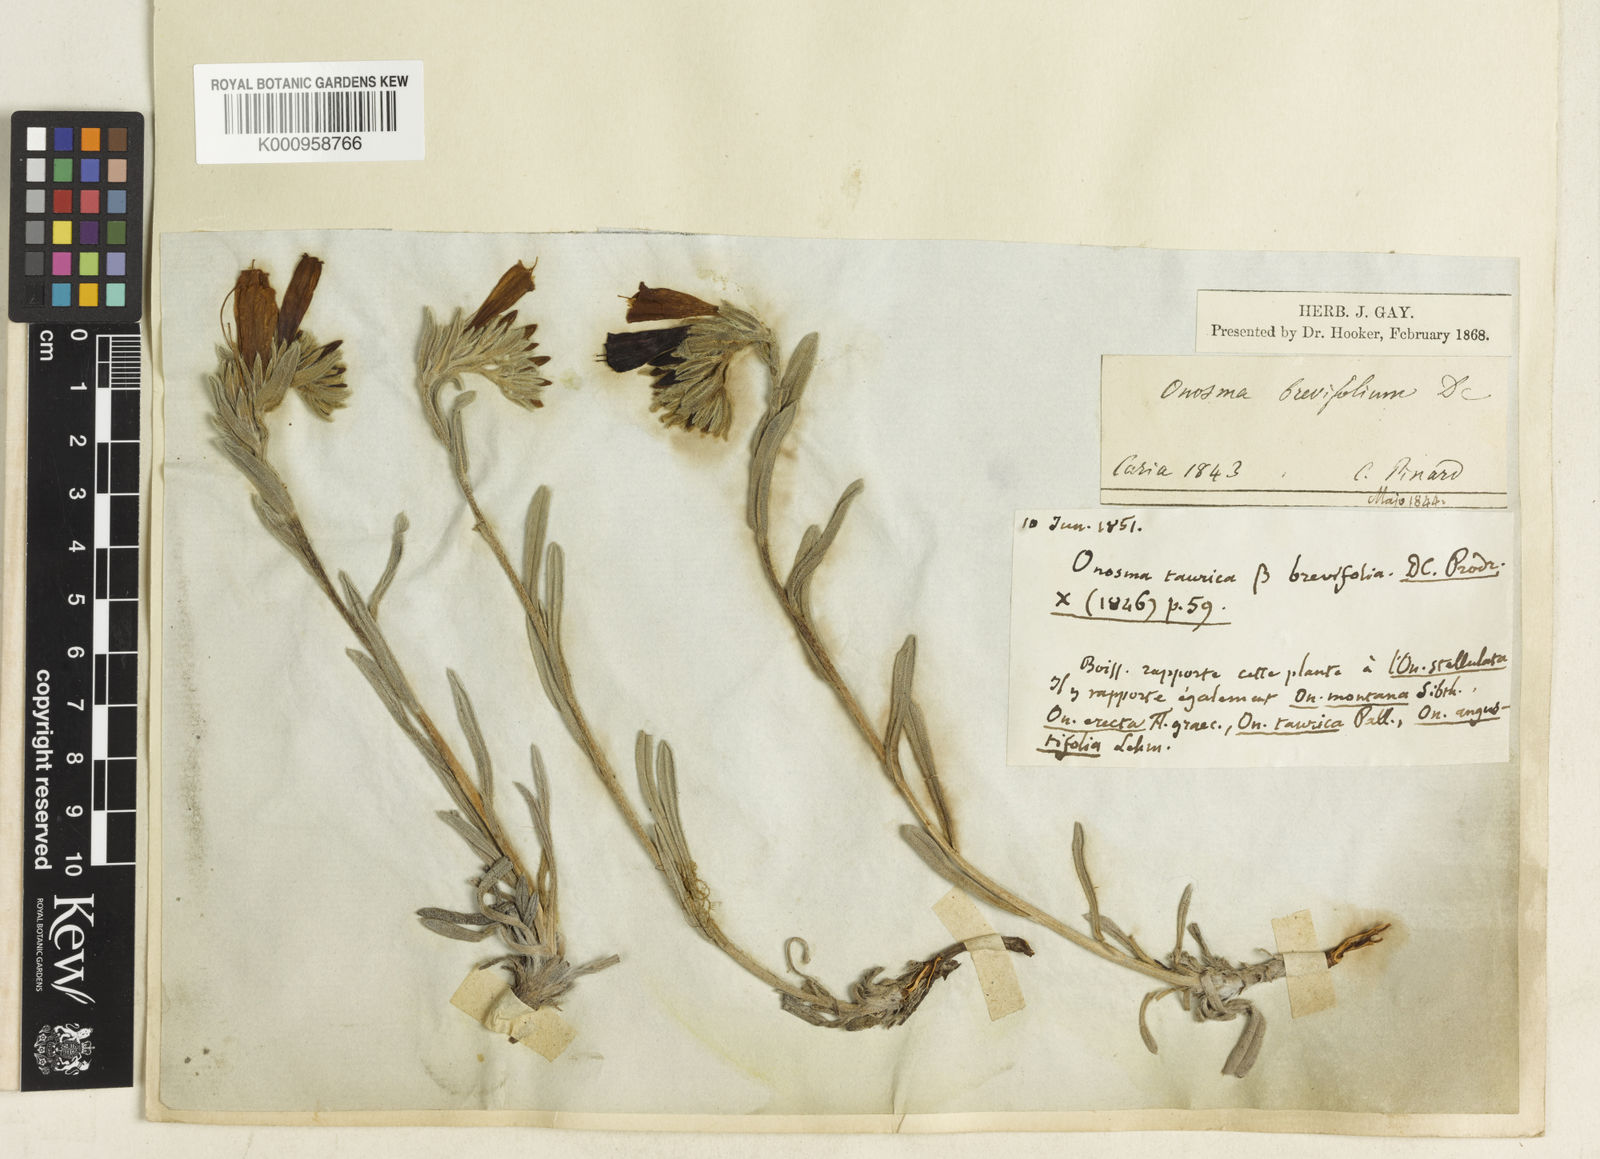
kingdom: Plantae
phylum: Tracheophyta
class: Magnoliopsida
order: Boraginales
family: Boraginaceae
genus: Onosma
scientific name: Onosma aucheriana
